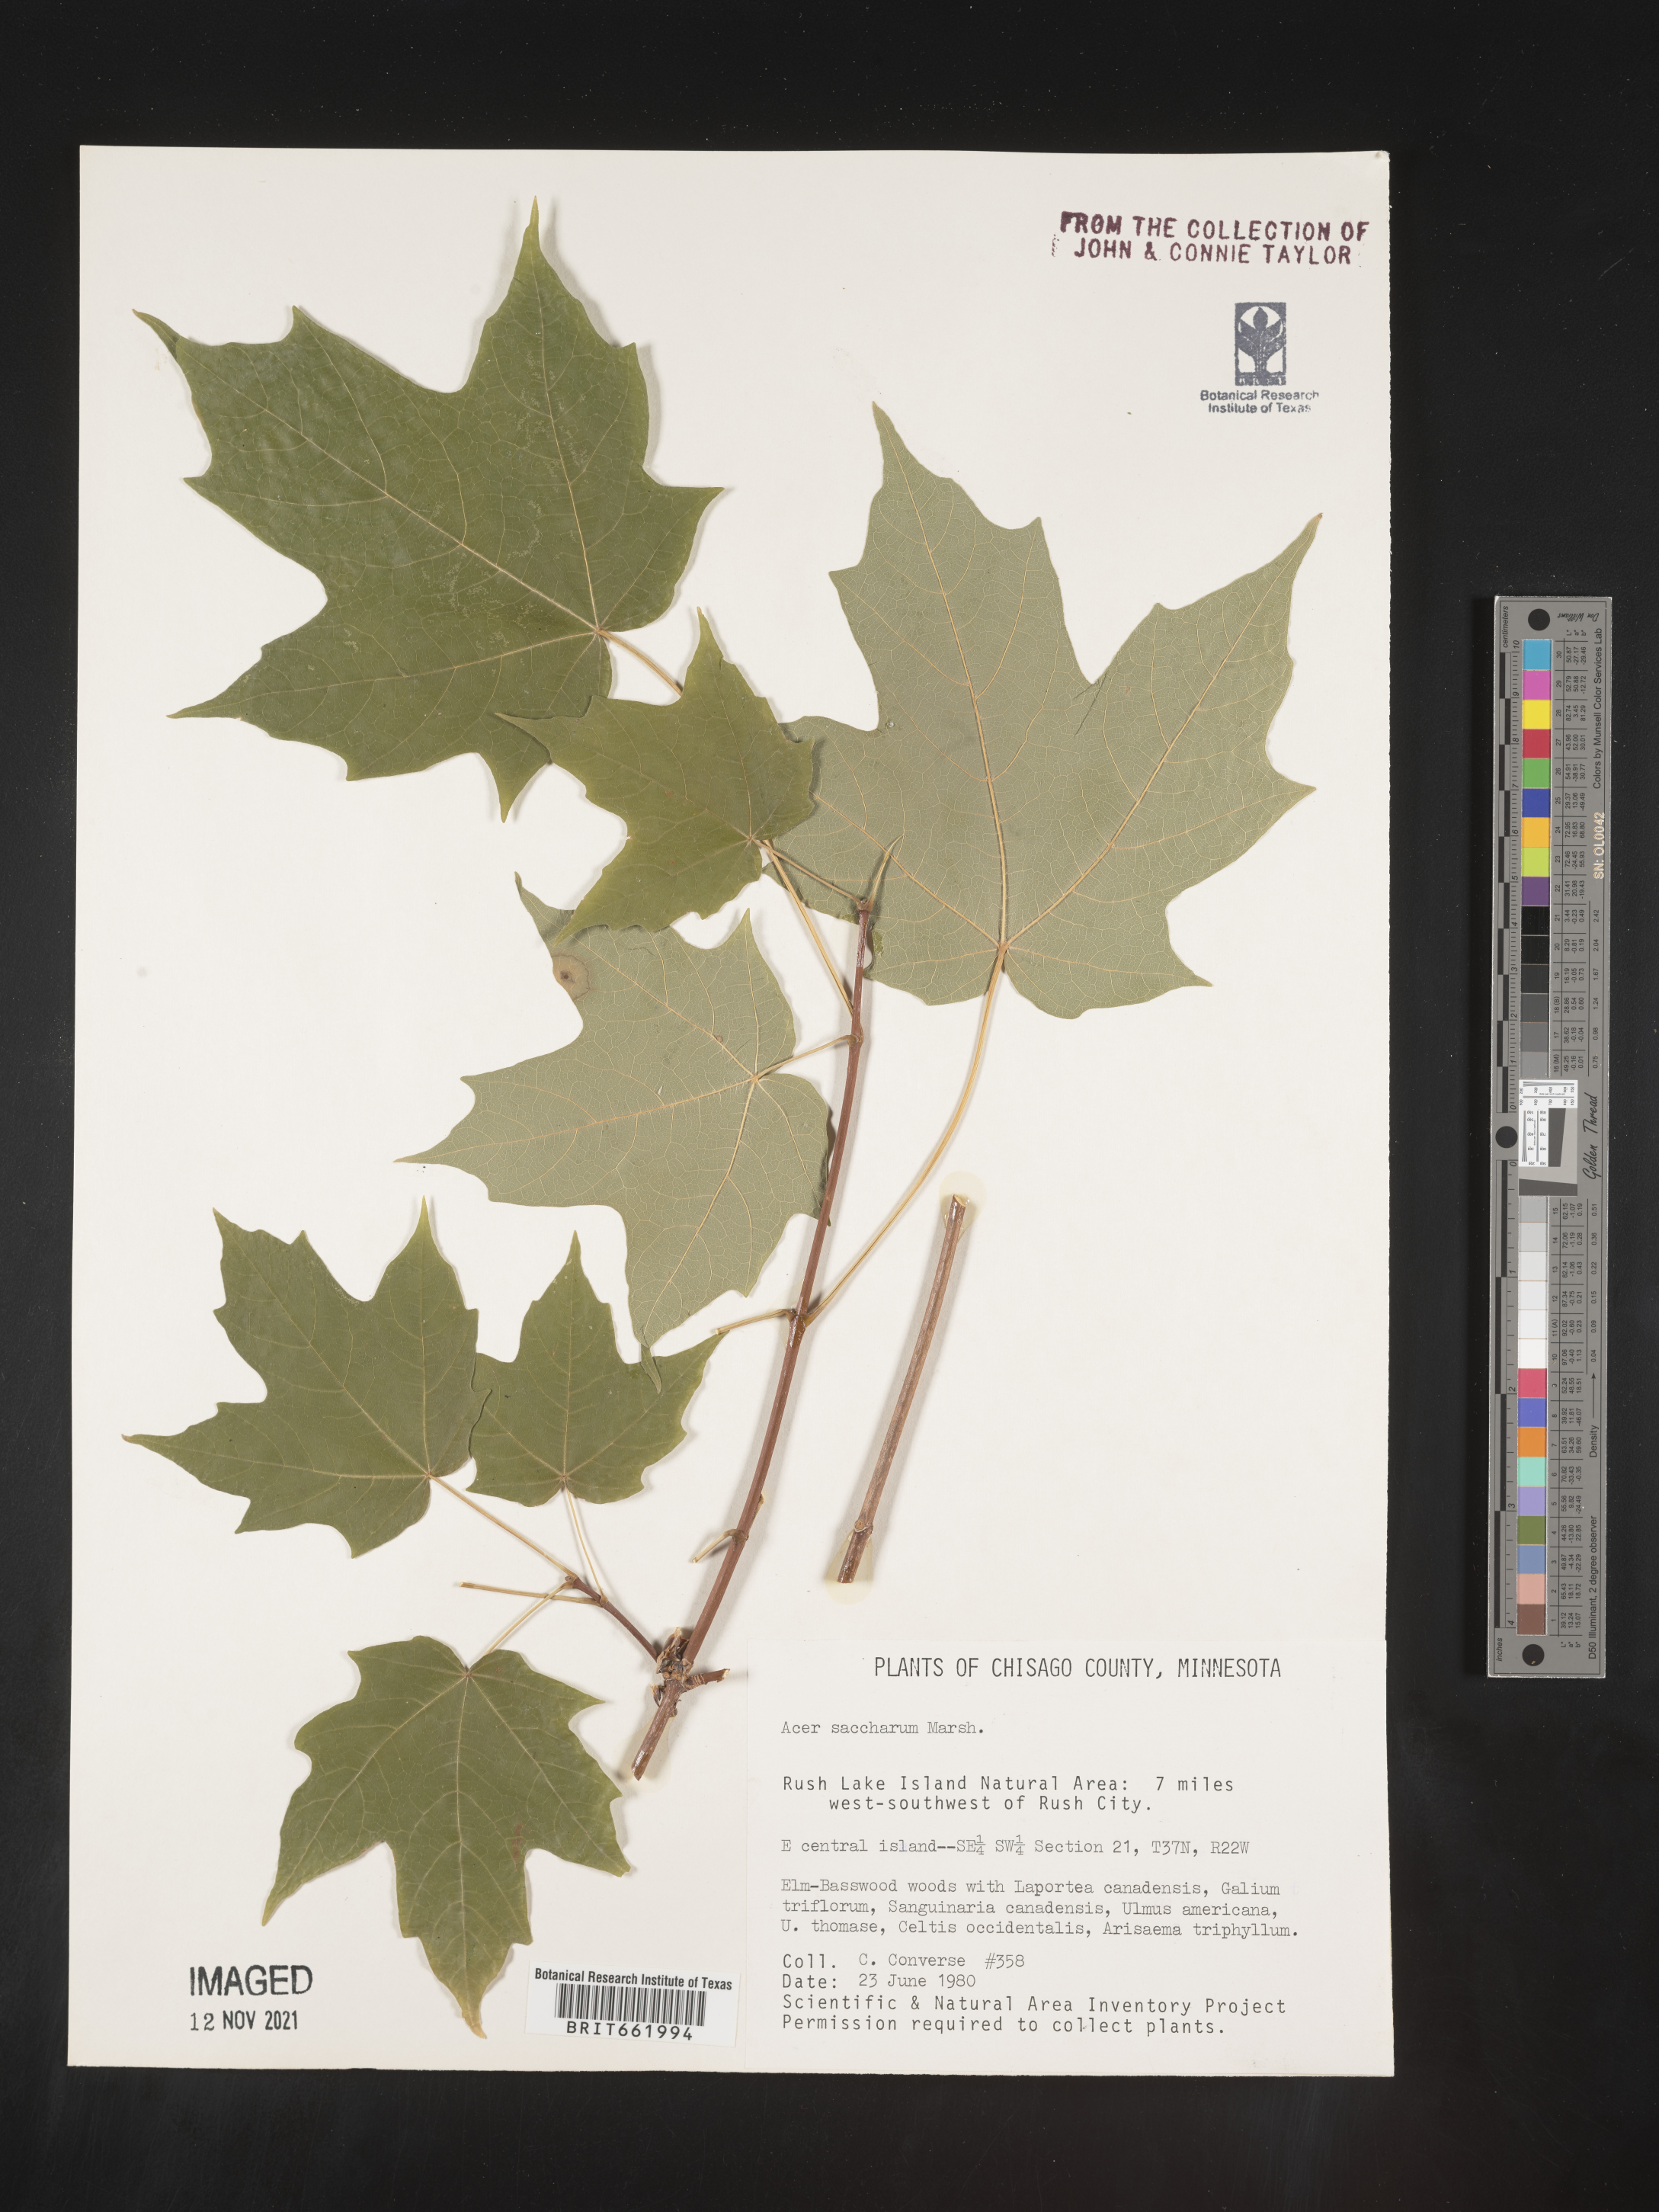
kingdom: Plantae
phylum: Tracheophyta
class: Magnoliopsida
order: Sapindales
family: Sapindaceae
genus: Acer
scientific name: Acer saccharum
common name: Sugar maple
